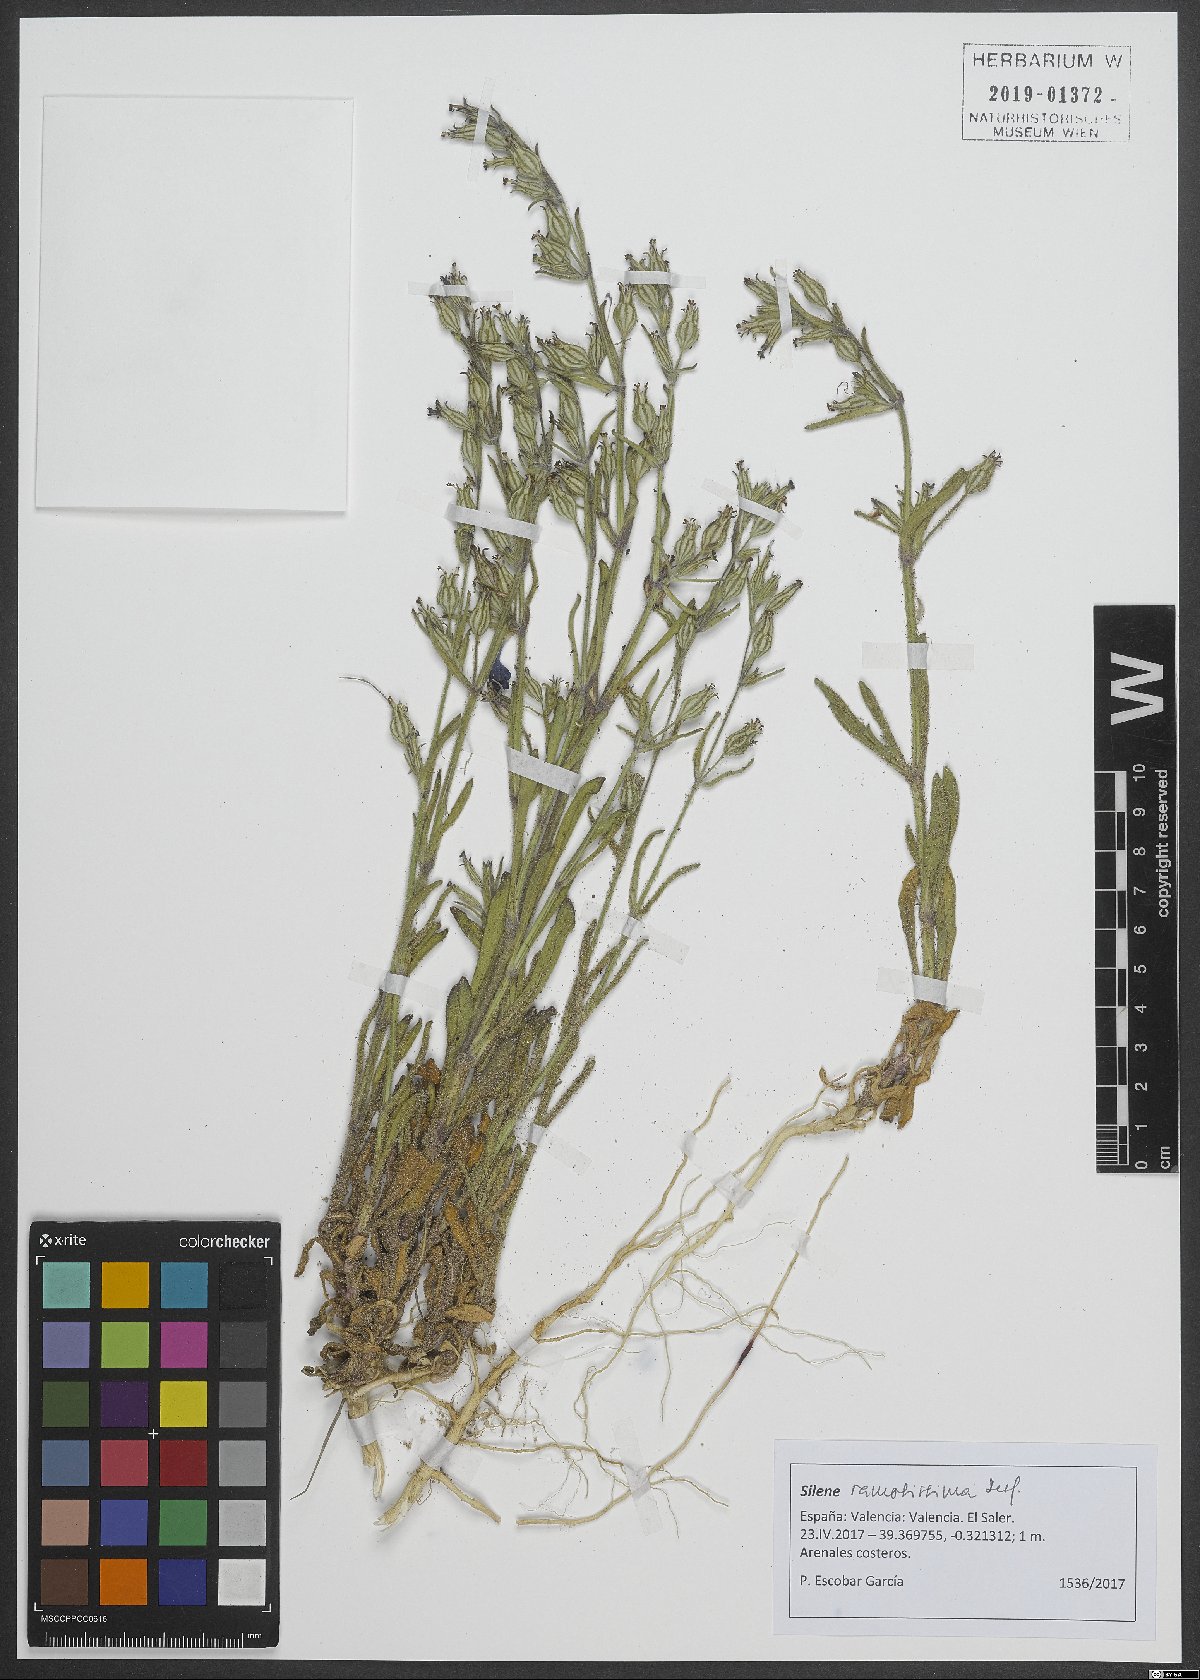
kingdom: Plantae
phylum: Tracheophyta
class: Magnoliopsida
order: Caryophyllales
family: Caryophyllaceae
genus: Silene
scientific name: Silene ramosissima
